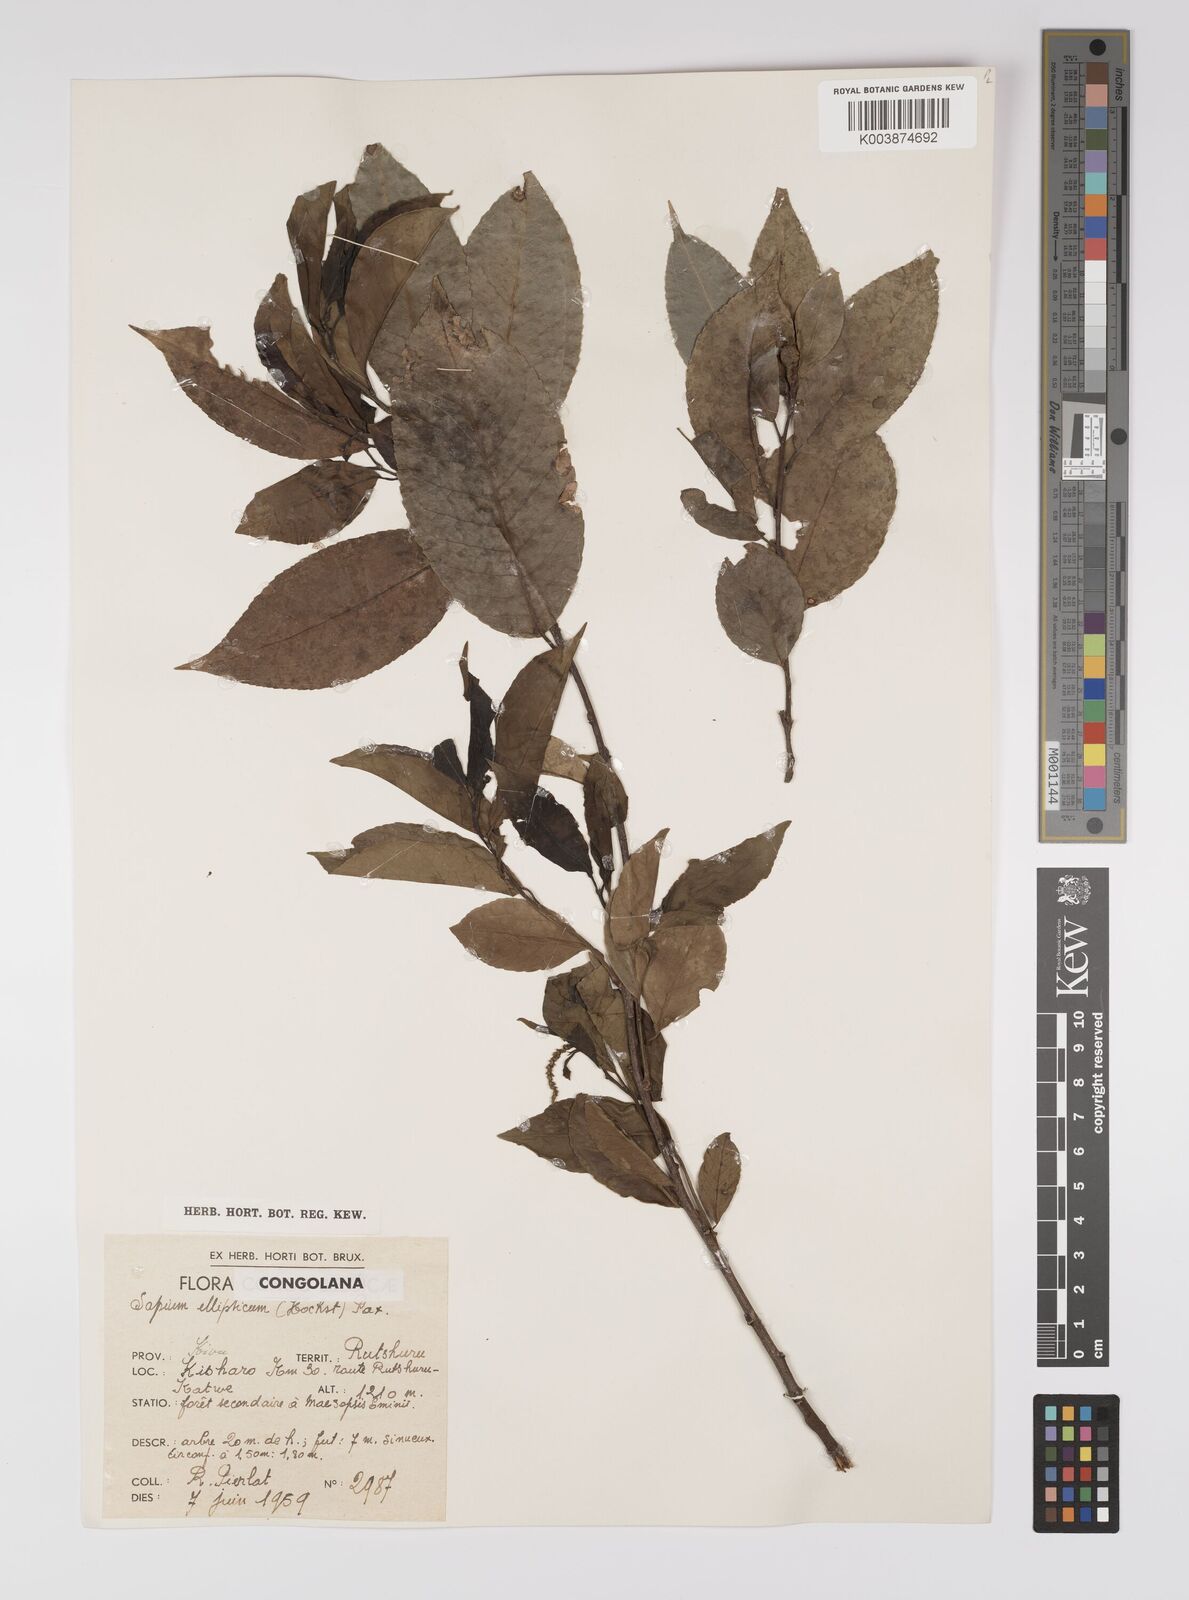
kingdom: Plantae
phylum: Tracheophyta
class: Magnoliopsida
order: Malpighiales
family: Euphorbiaceae
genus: Shirakiopsis
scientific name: Shirakiopsis elliptica
